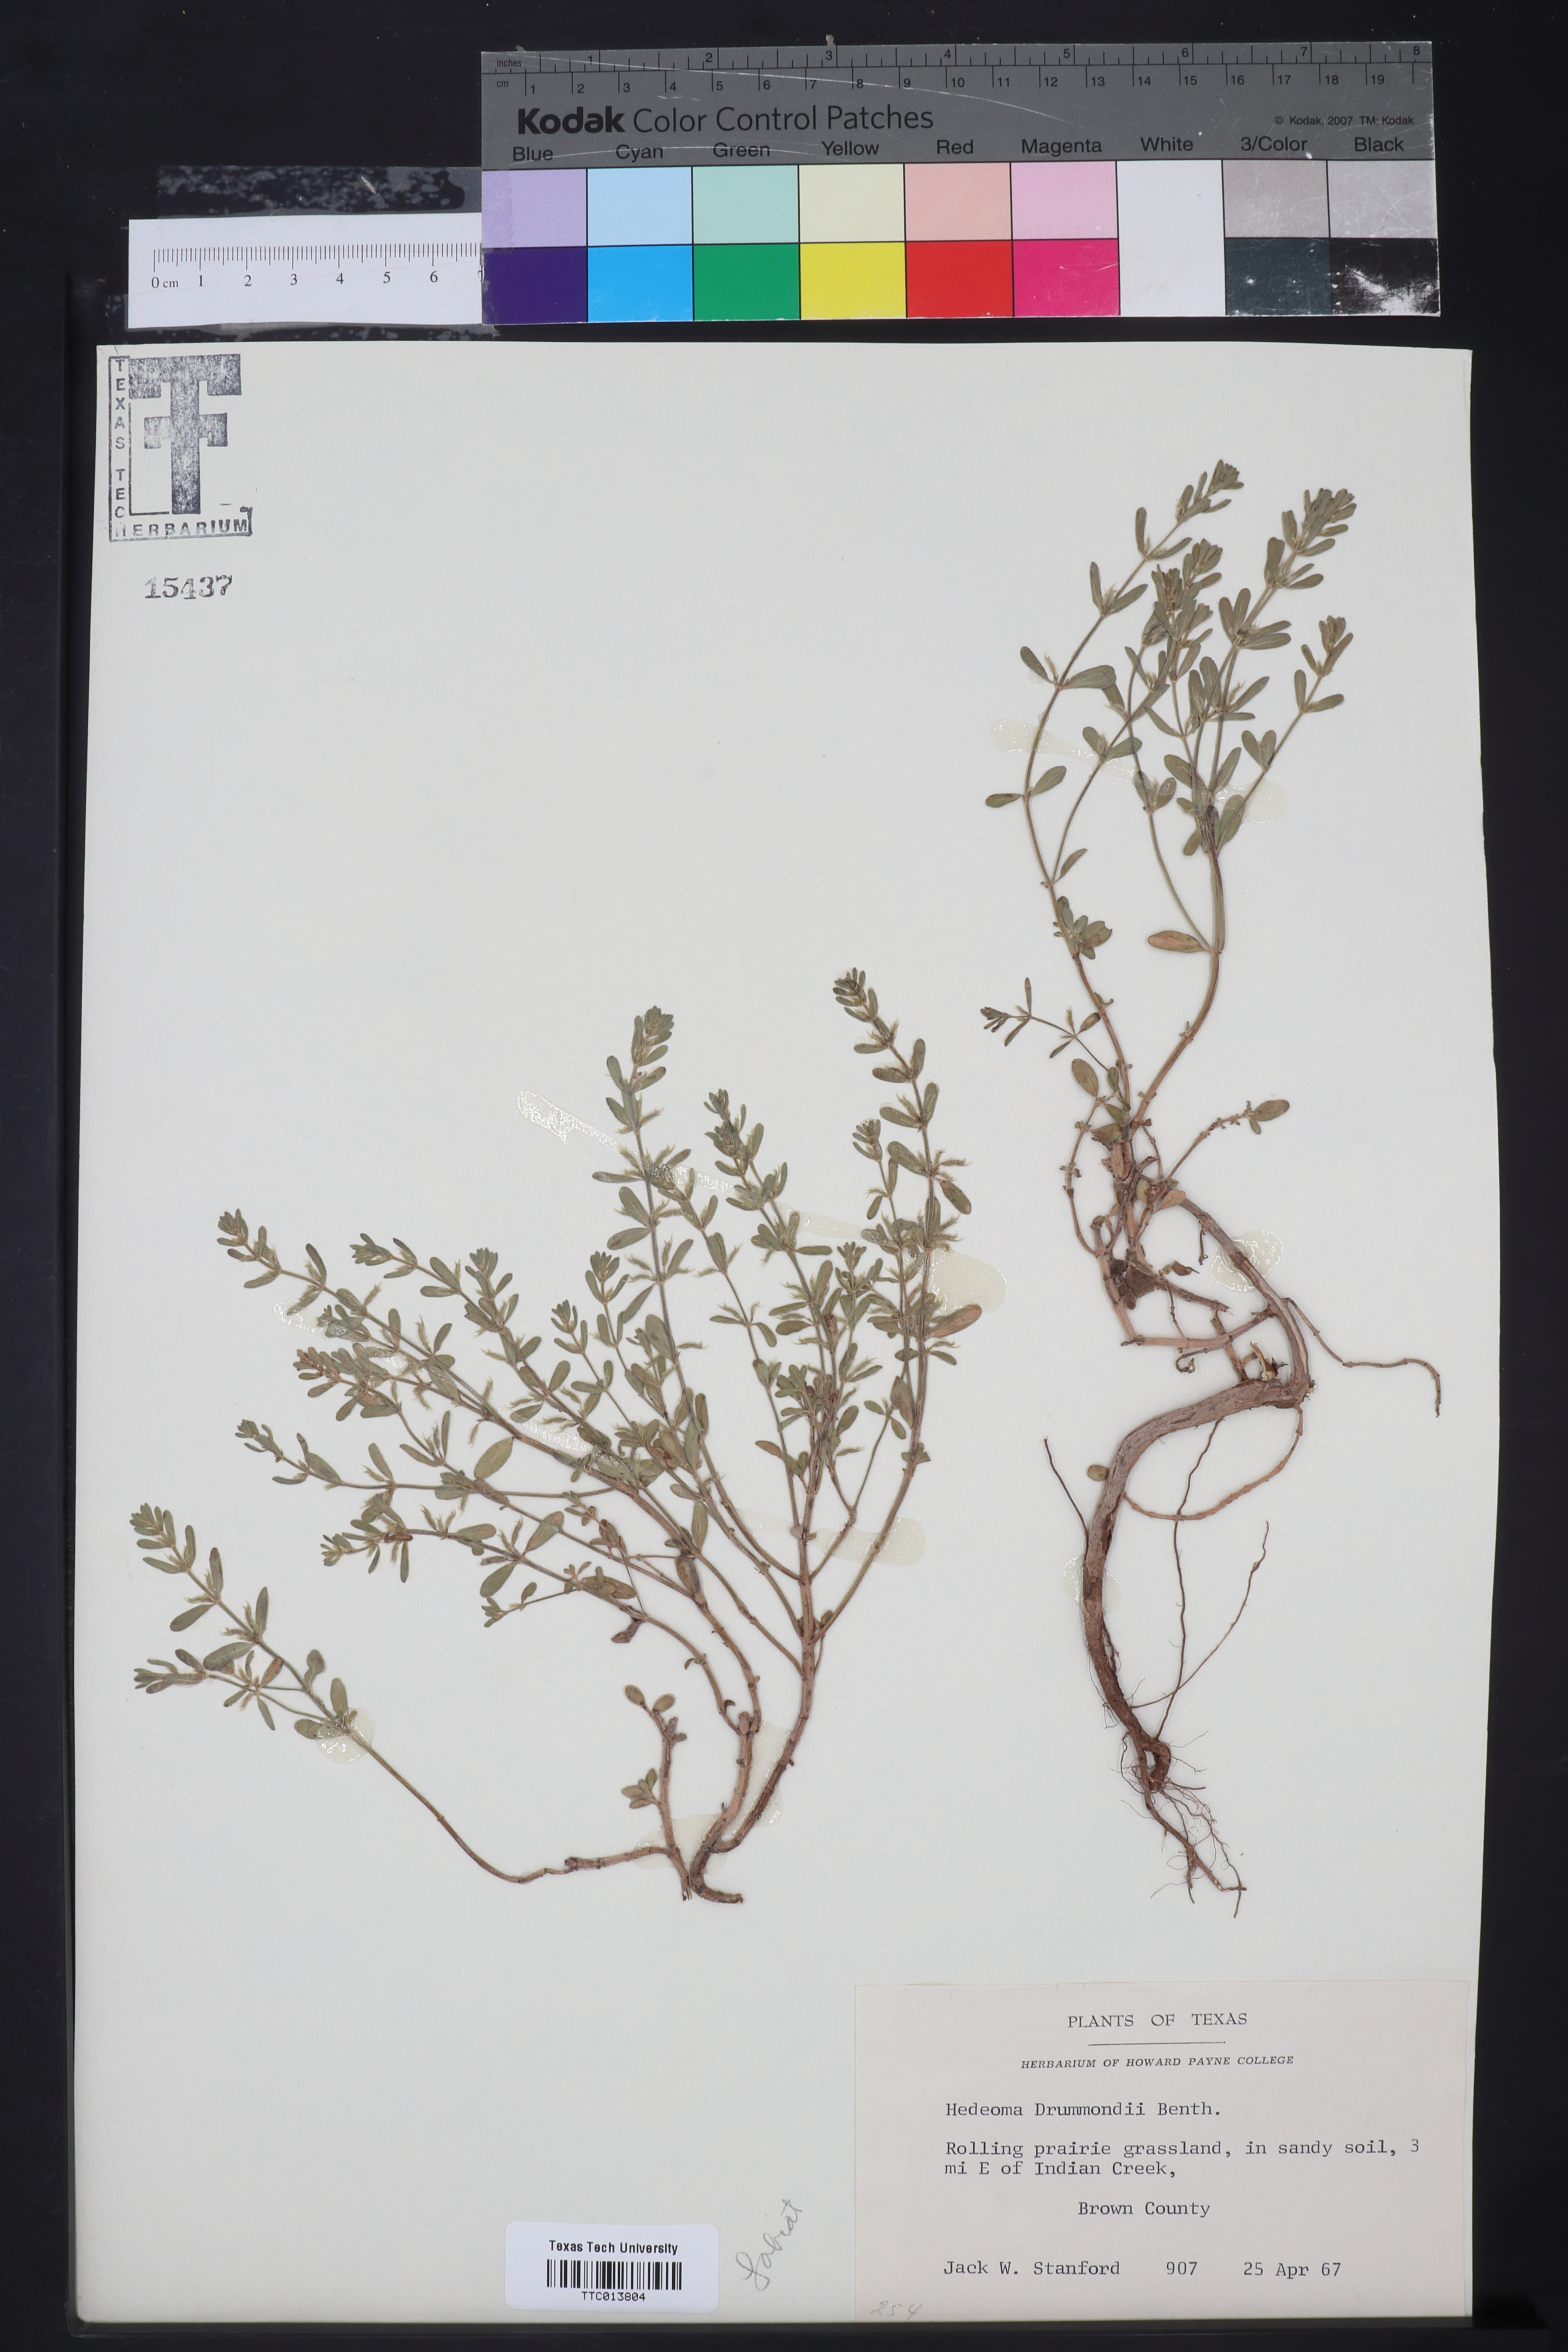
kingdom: Plantae
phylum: Tracheophyta
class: Magnoliopsida
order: Lamiales
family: Lamiaceae
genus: Hedeoma
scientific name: Hedeoma drummondii
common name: New mexico pennyroyal
